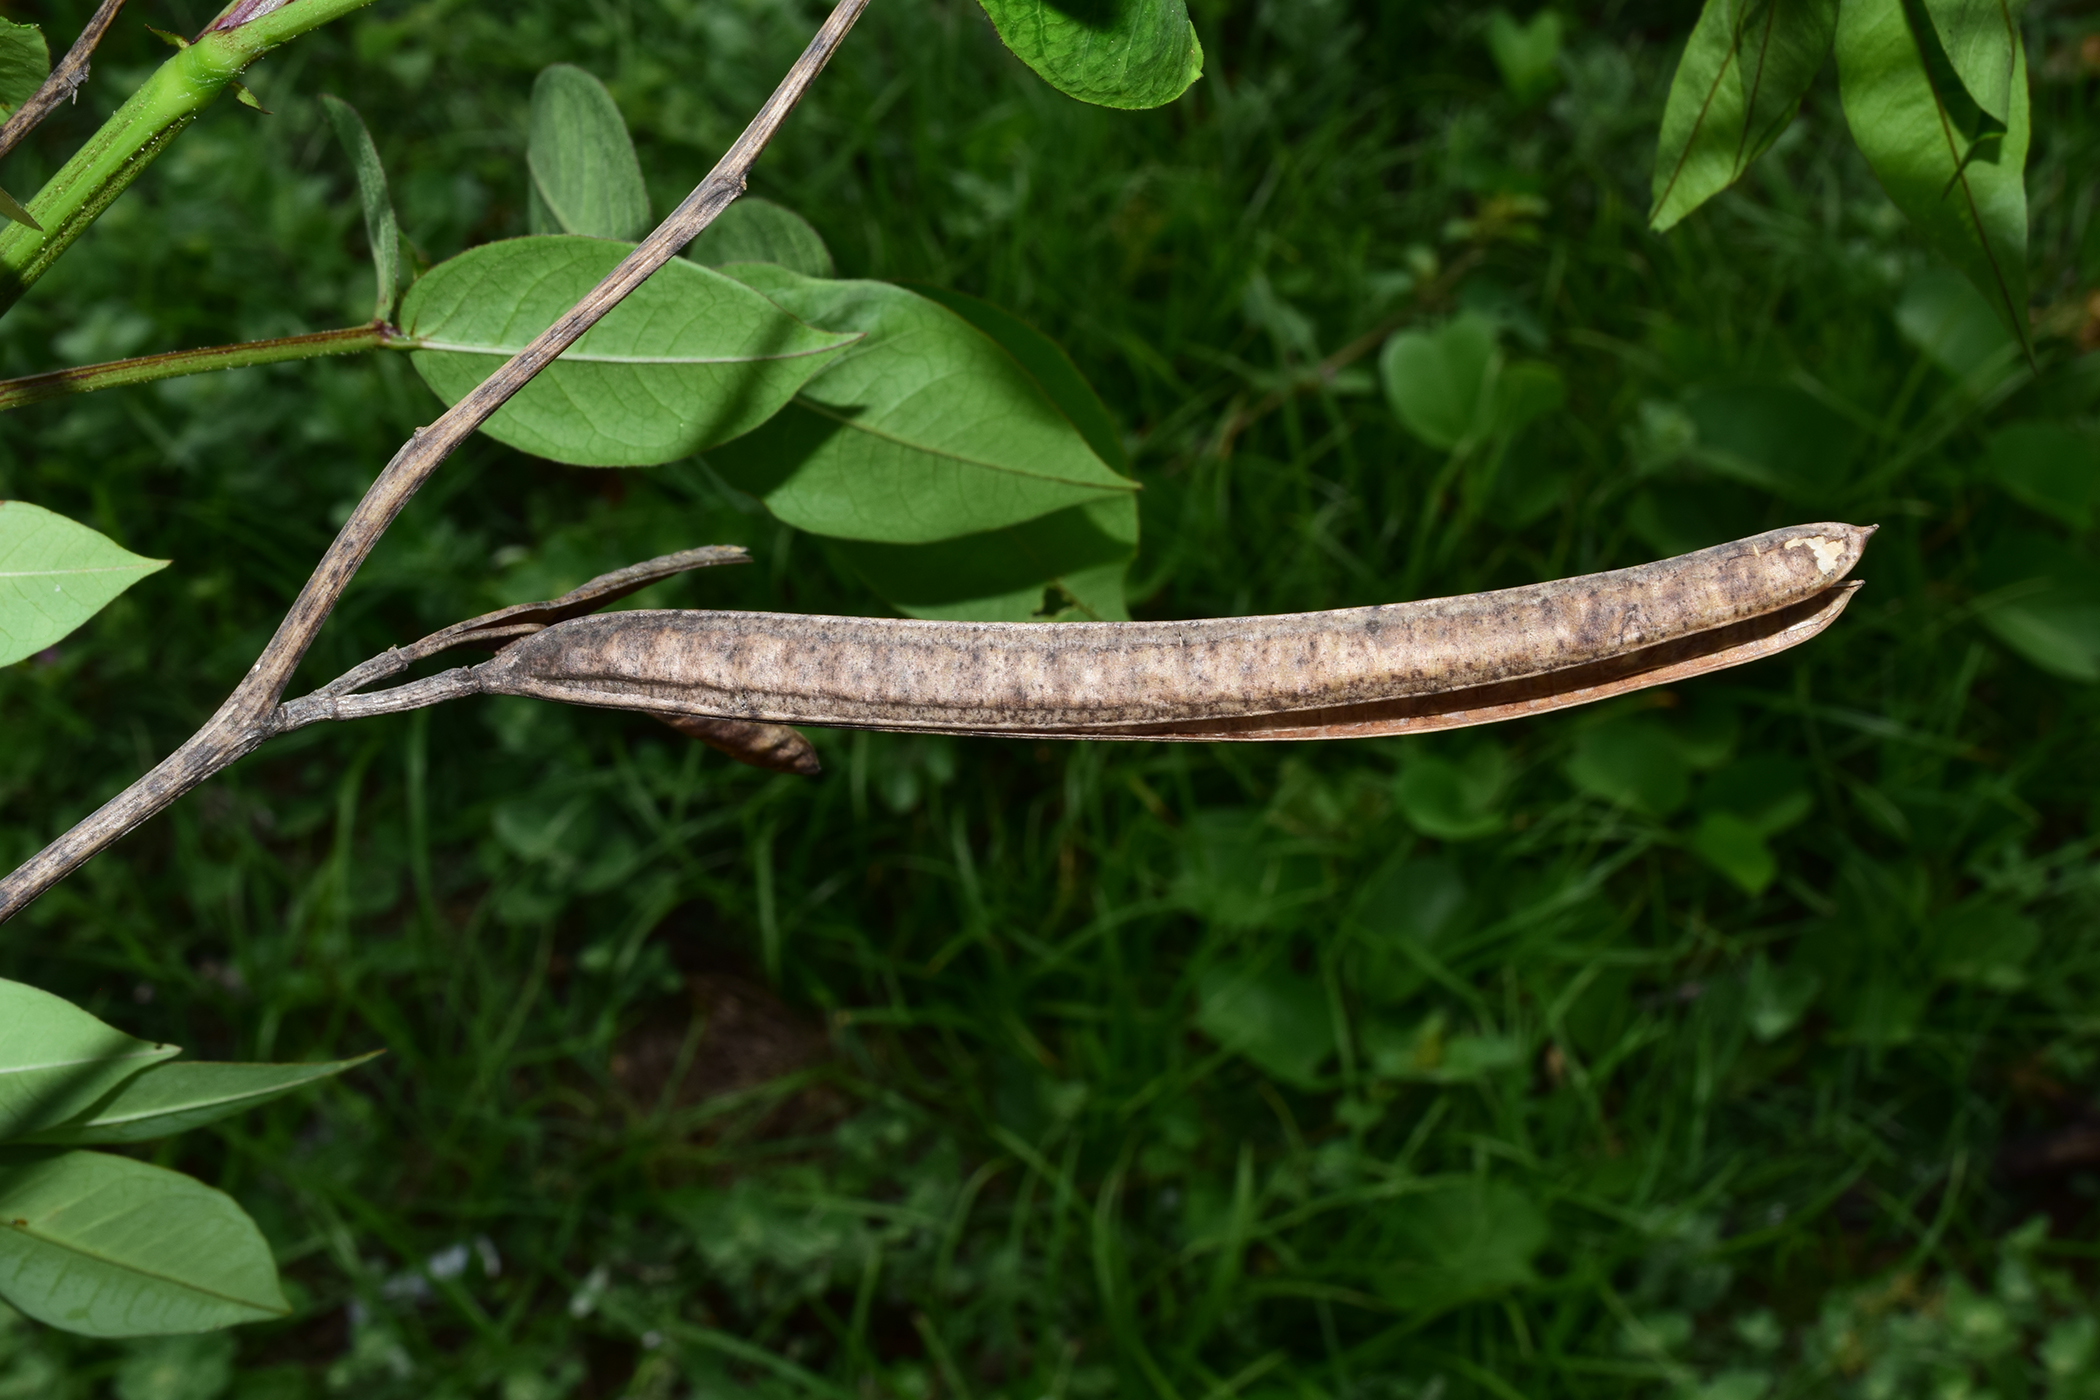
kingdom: Plantae
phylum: Tracheophyta
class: Magnoliopsida
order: Fabales
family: Fabaceae
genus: Senna
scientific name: Senna occidentalis
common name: Septicweed
